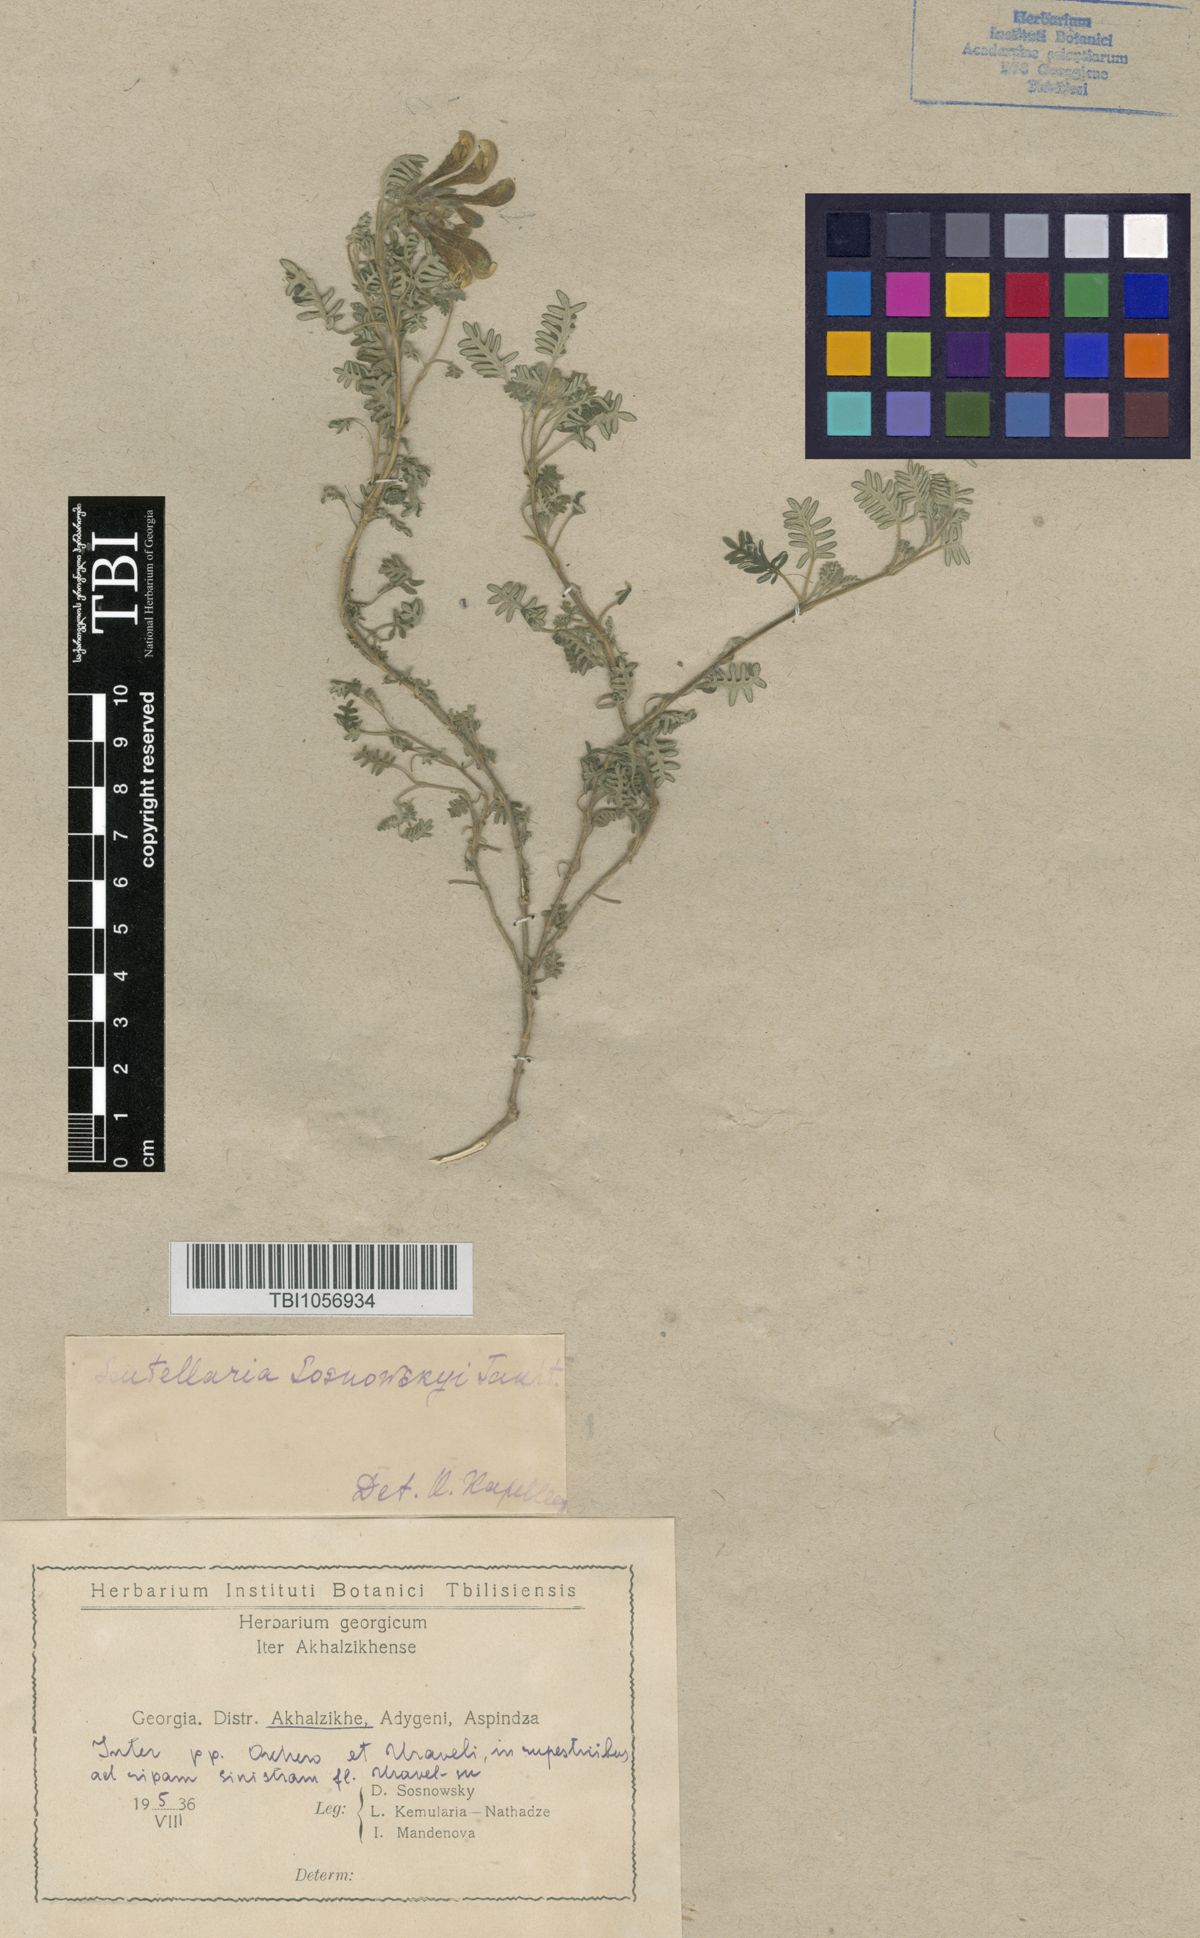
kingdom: Plantae
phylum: Tracheophyta
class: Magnoliopsida
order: Lamiales
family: Lamiaceae
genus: Scutellaria
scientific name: Scutellaria sosnowskyi
